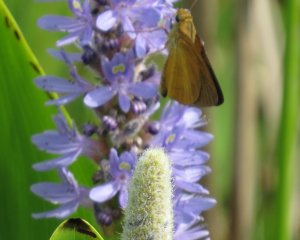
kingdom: Animalia
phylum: Arthropoda
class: Insecta
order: Lepidoptera
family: Hesperiidae
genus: Euphyes
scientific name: Euphyes dukesi
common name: Dukes' Skipper
